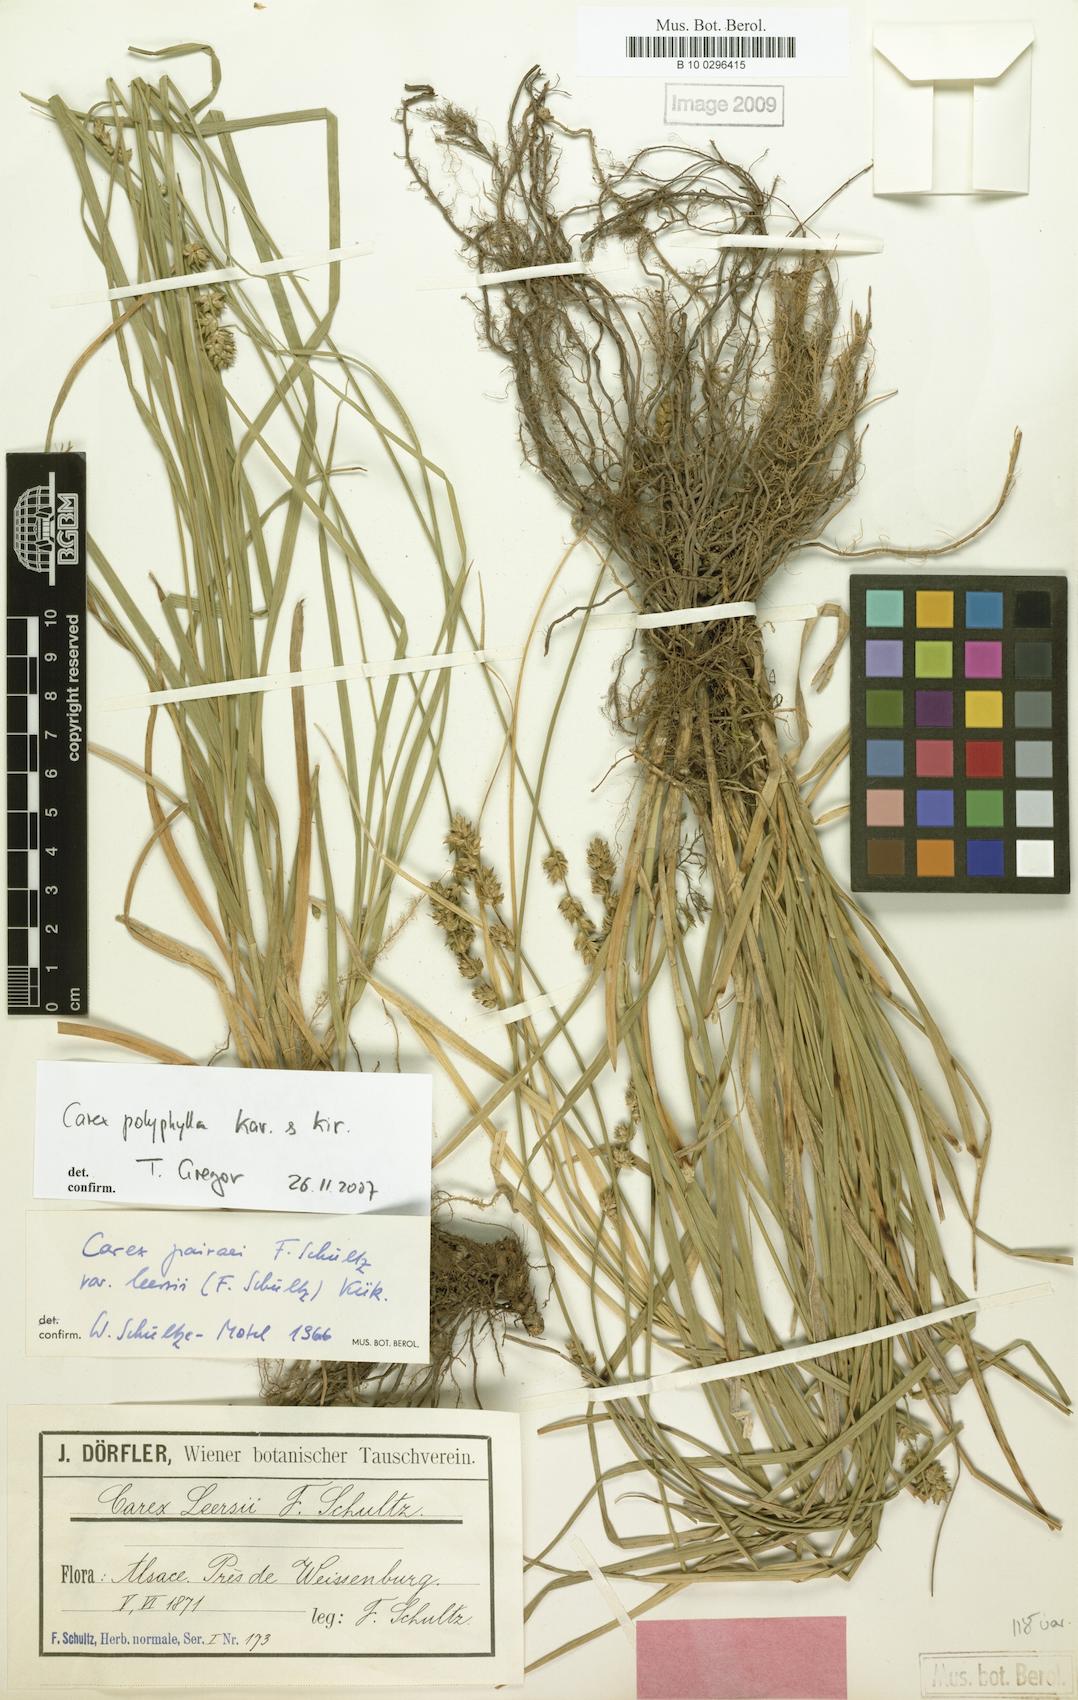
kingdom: Plantae
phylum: Tracheophyta
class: Liliopsida
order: Poales
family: Cyperaceae
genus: Carex
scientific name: Carex polyphylla
